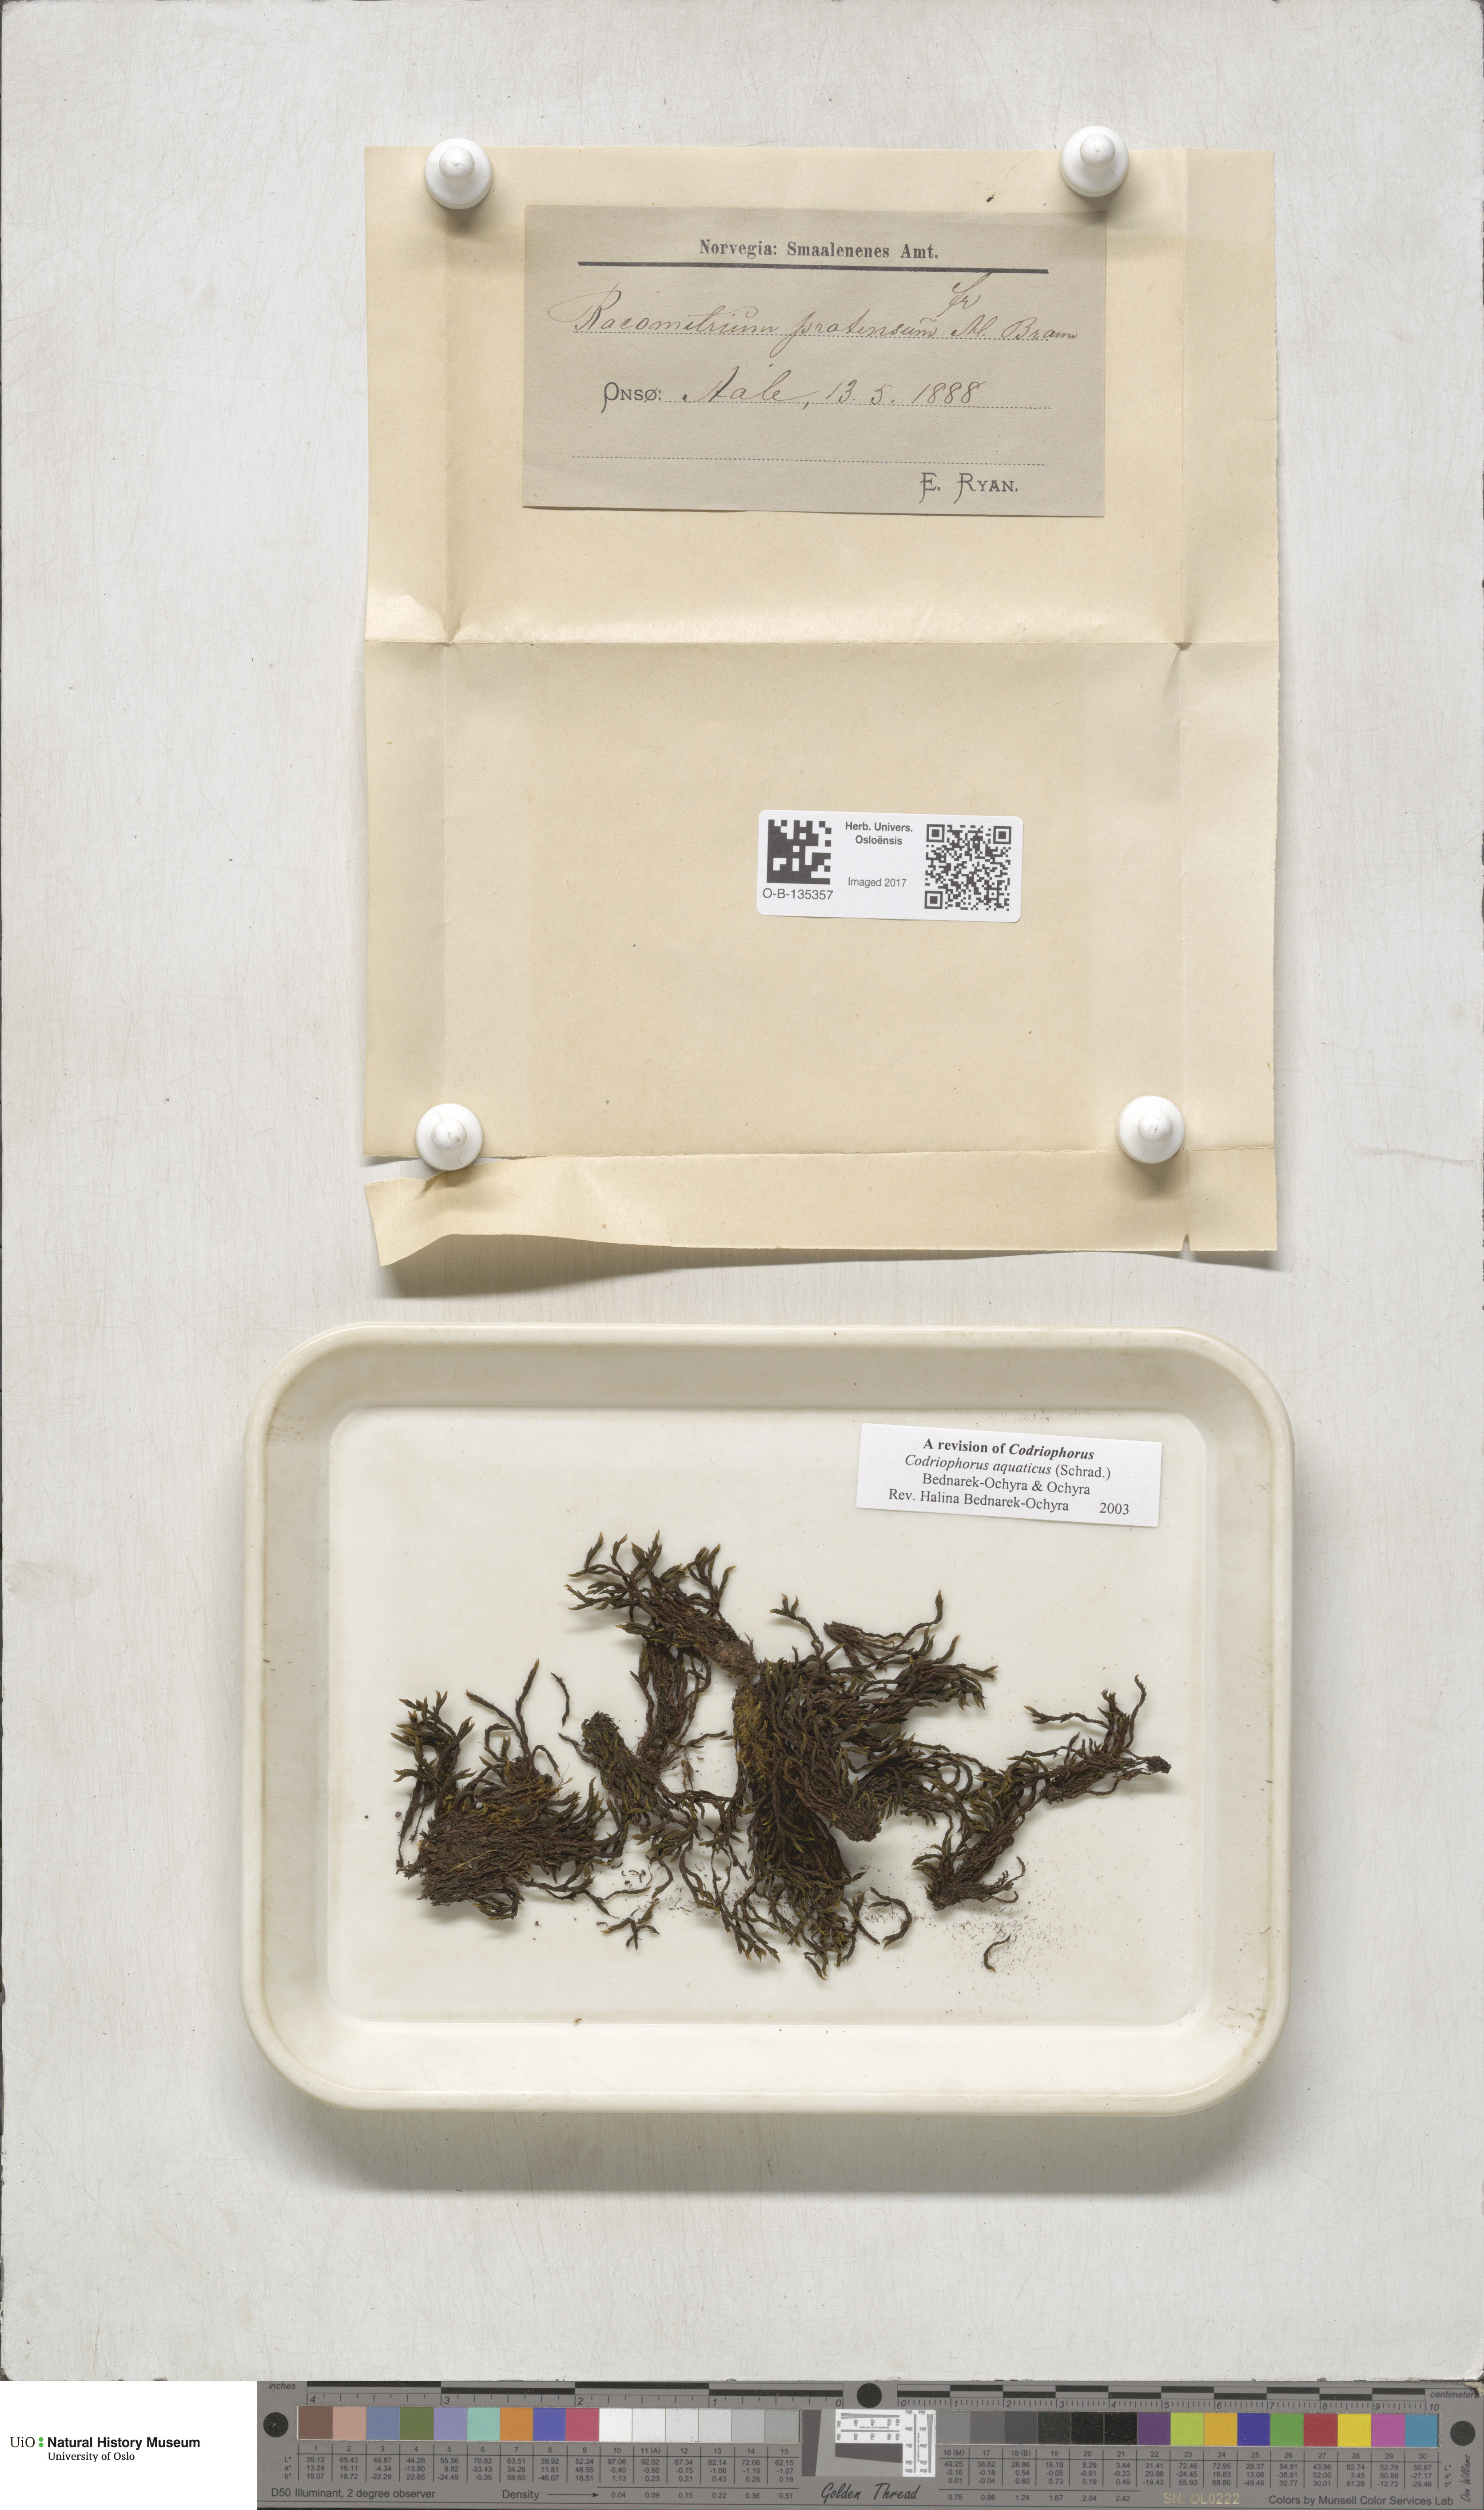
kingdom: Plantae
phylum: Bryophyta
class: Bryopsida
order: Grimmiales
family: Grimmiaceae
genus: Codriophorus
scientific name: Codriophorus aquaticus
